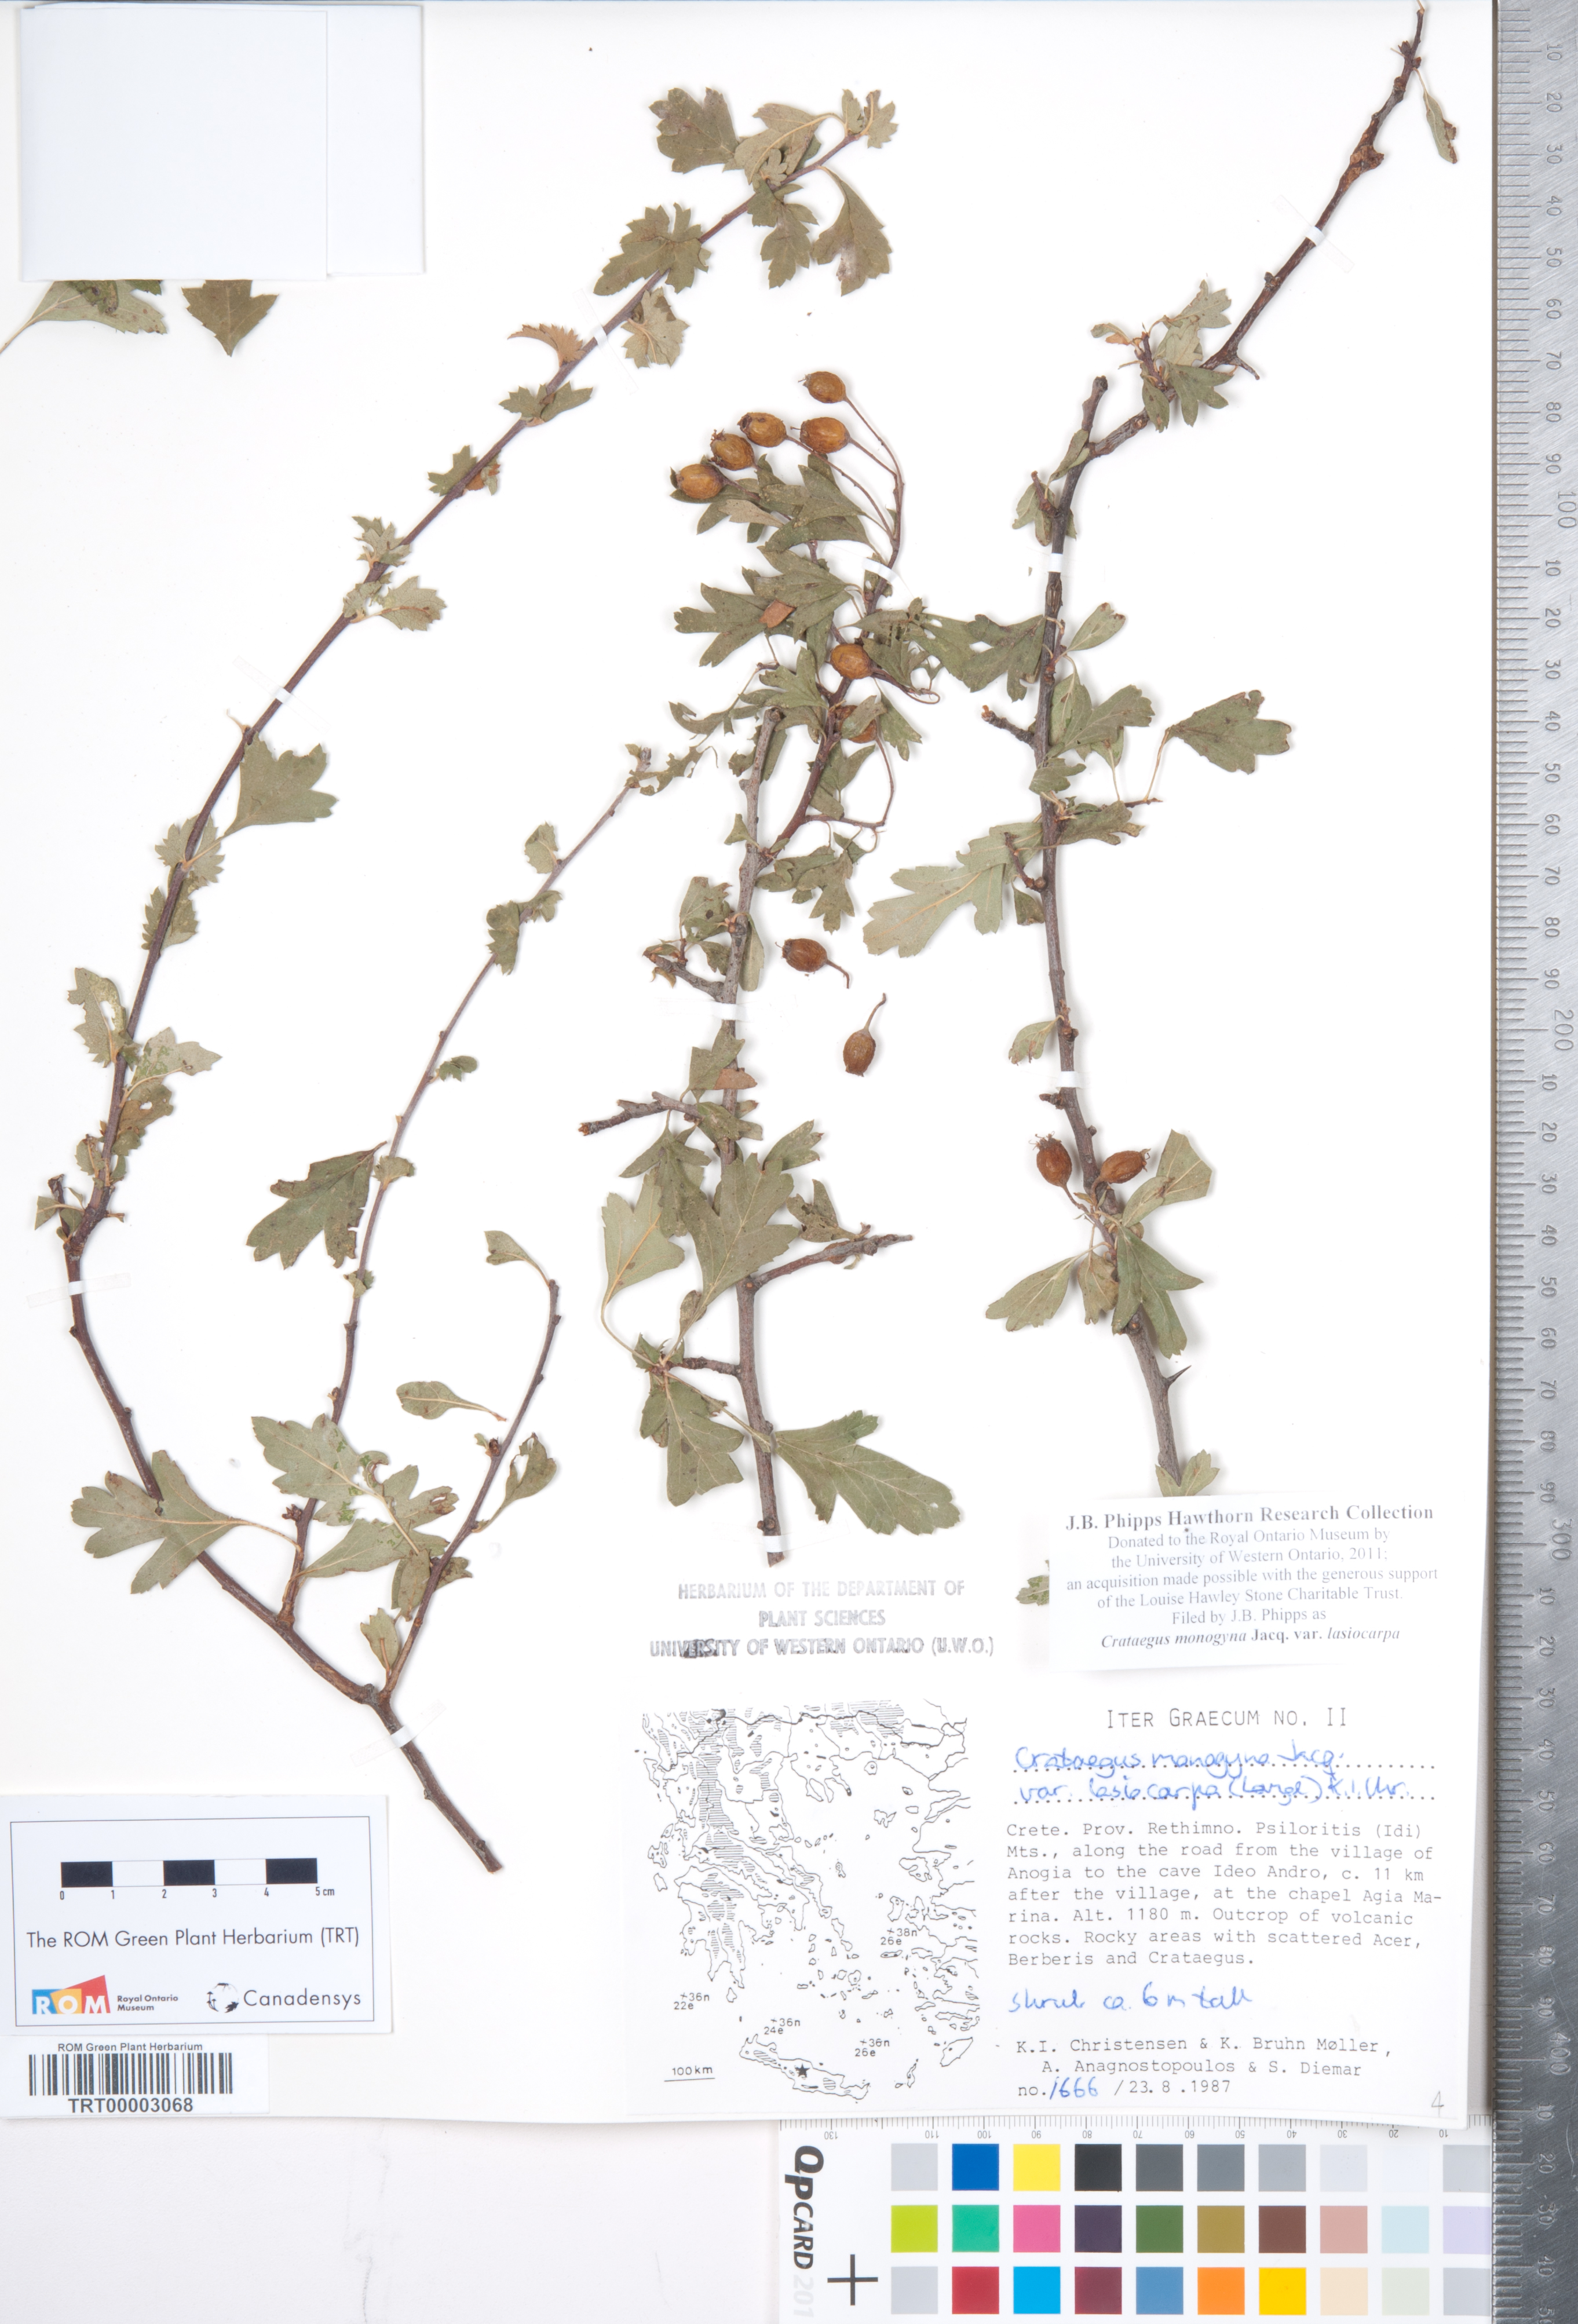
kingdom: Plantae
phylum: Tracheophyta
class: Magnoliopsida
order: Rosales
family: Rosaceae
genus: Crataegus
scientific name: Crataegus laciniata
